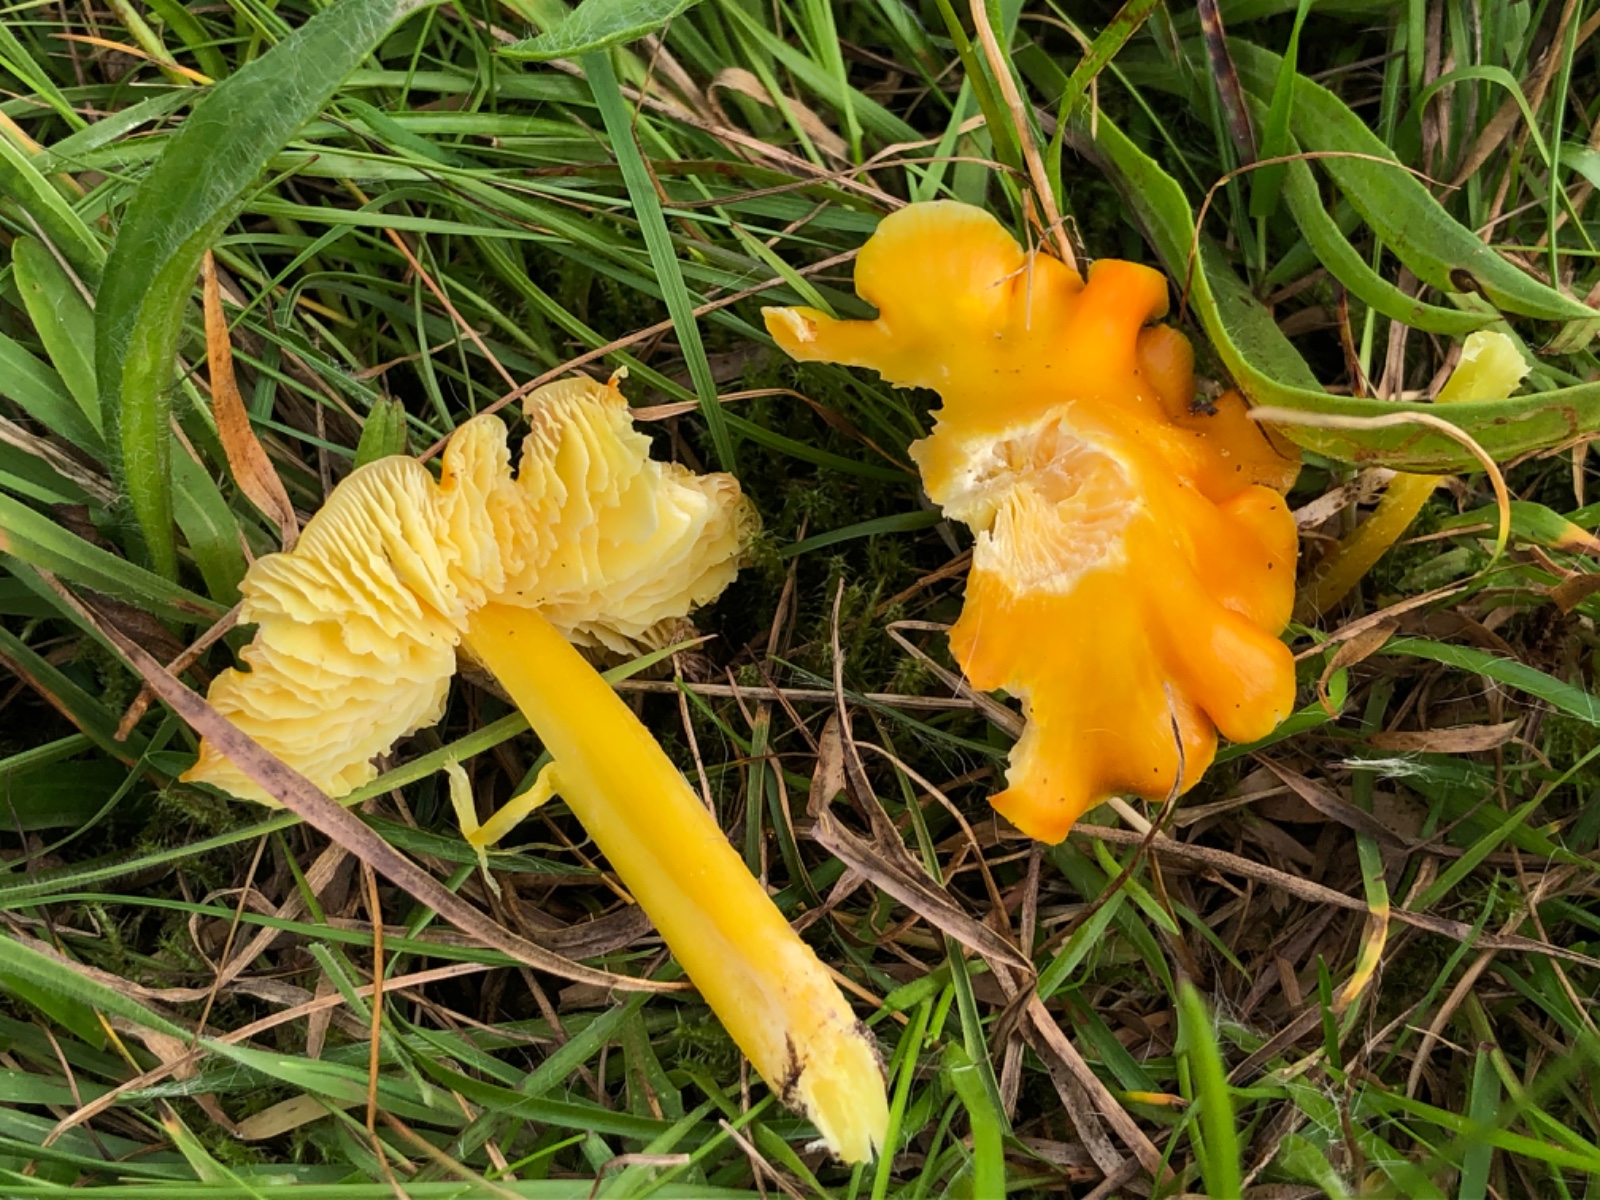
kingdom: Fungi
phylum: Basidiomycota
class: Agaricomycetes
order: Agaricales
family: Hygrophoraceae
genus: Hygrocybe
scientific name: Hygrocybe chlorophana
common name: gul vokshat
